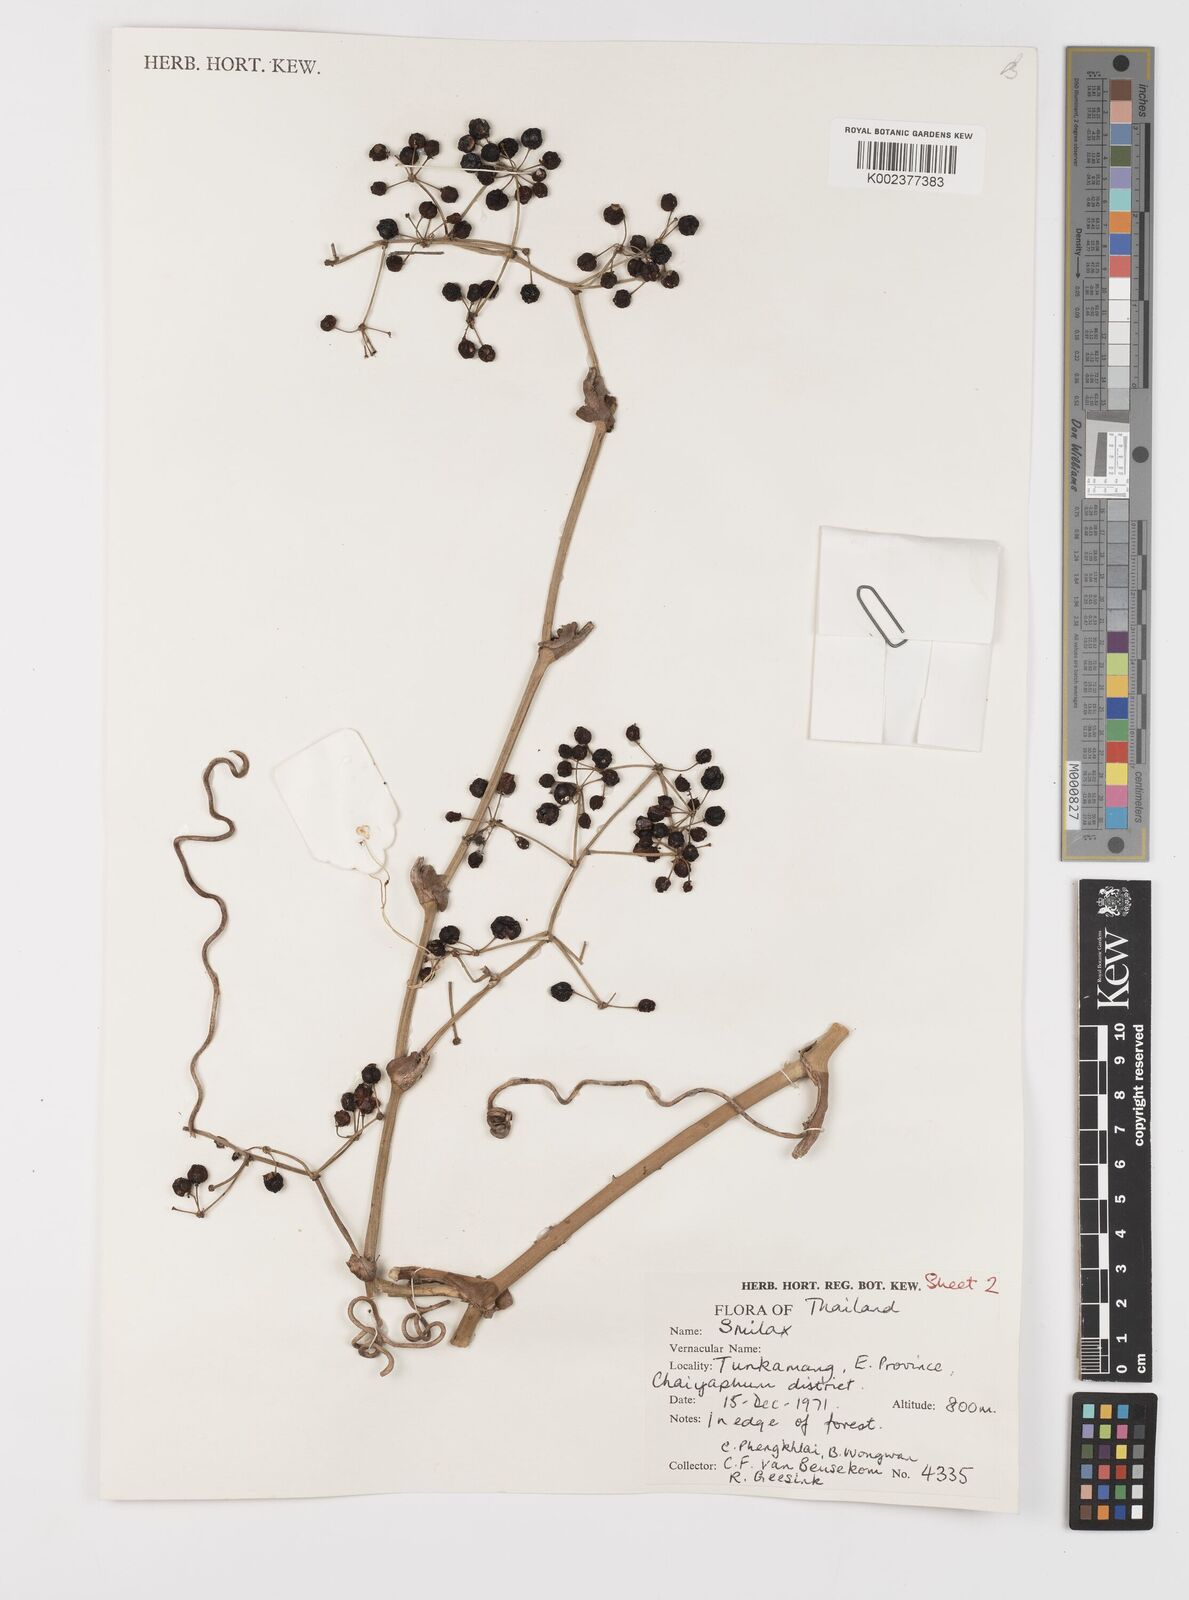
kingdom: Plantae
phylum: Tracheophyta
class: Liliopsida
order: Liliales
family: Smilacaceae
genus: Smilax
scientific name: Smilax
